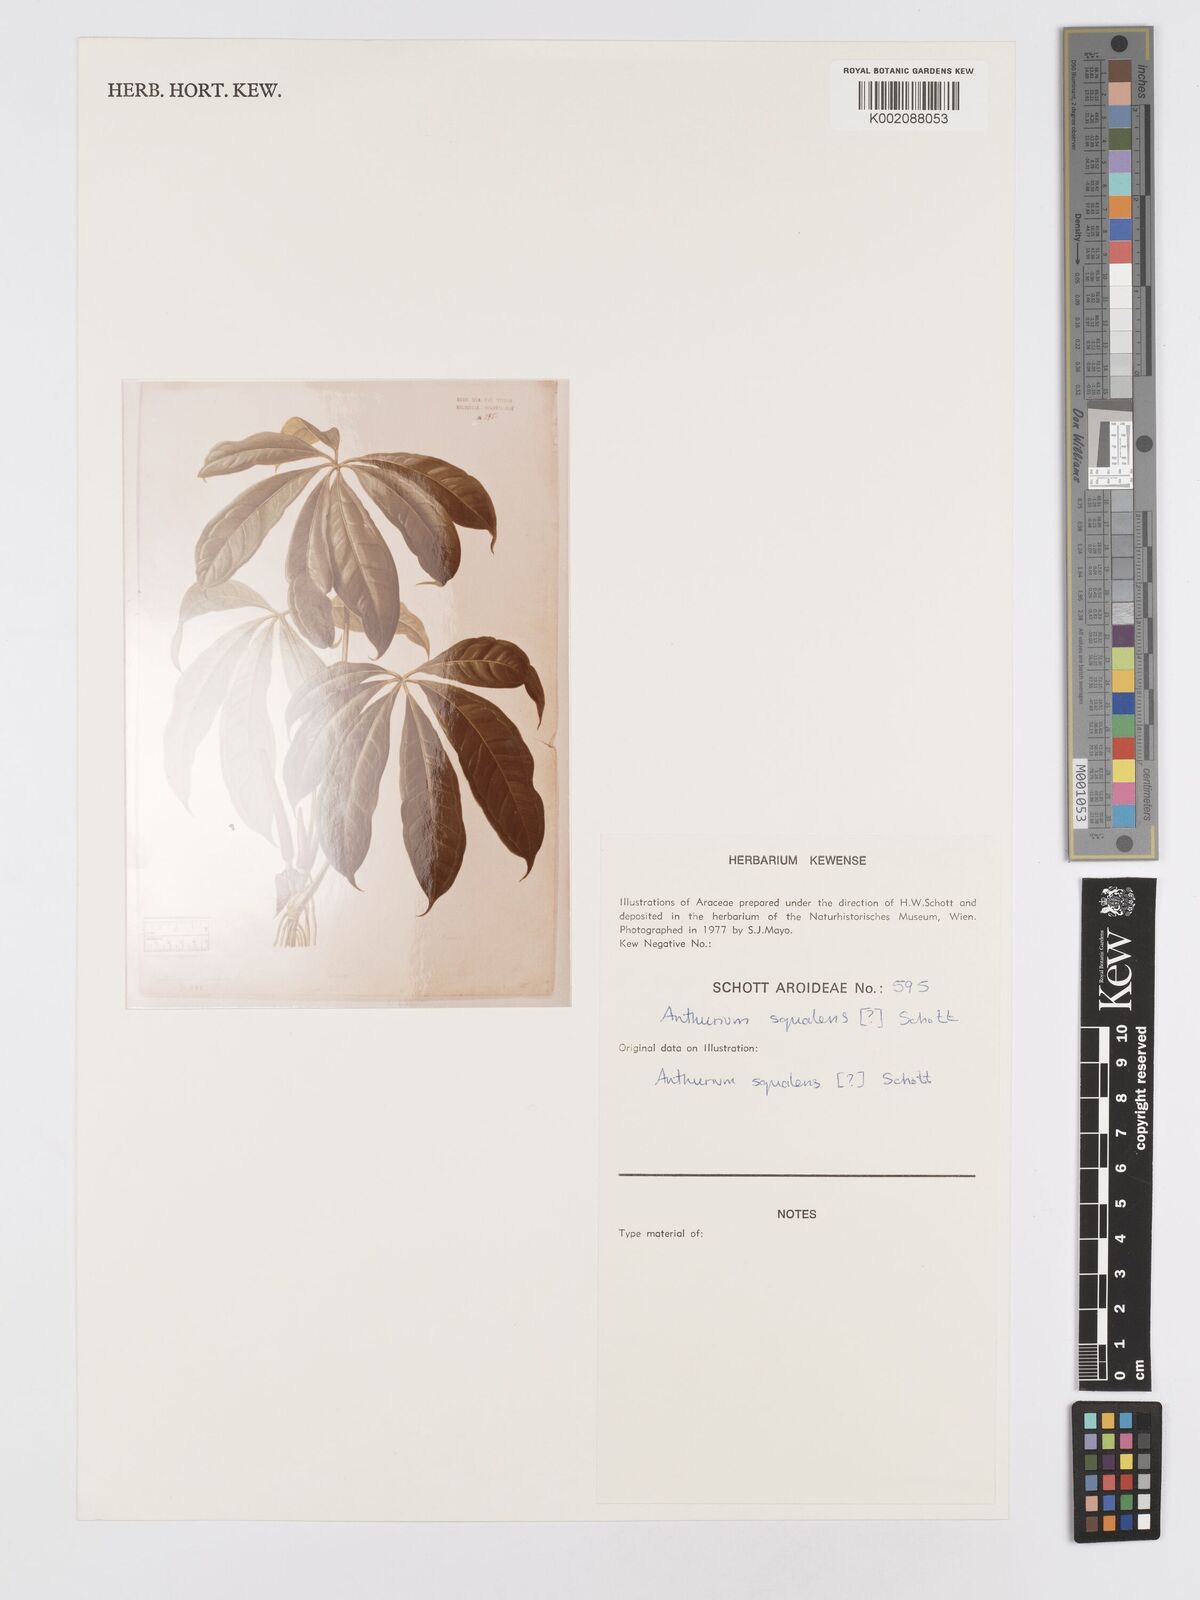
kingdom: Plantae
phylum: Tracheophyta
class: Liliopsida
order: Alismatales
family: Araceae
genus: Anthurium
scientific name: Anthurium
